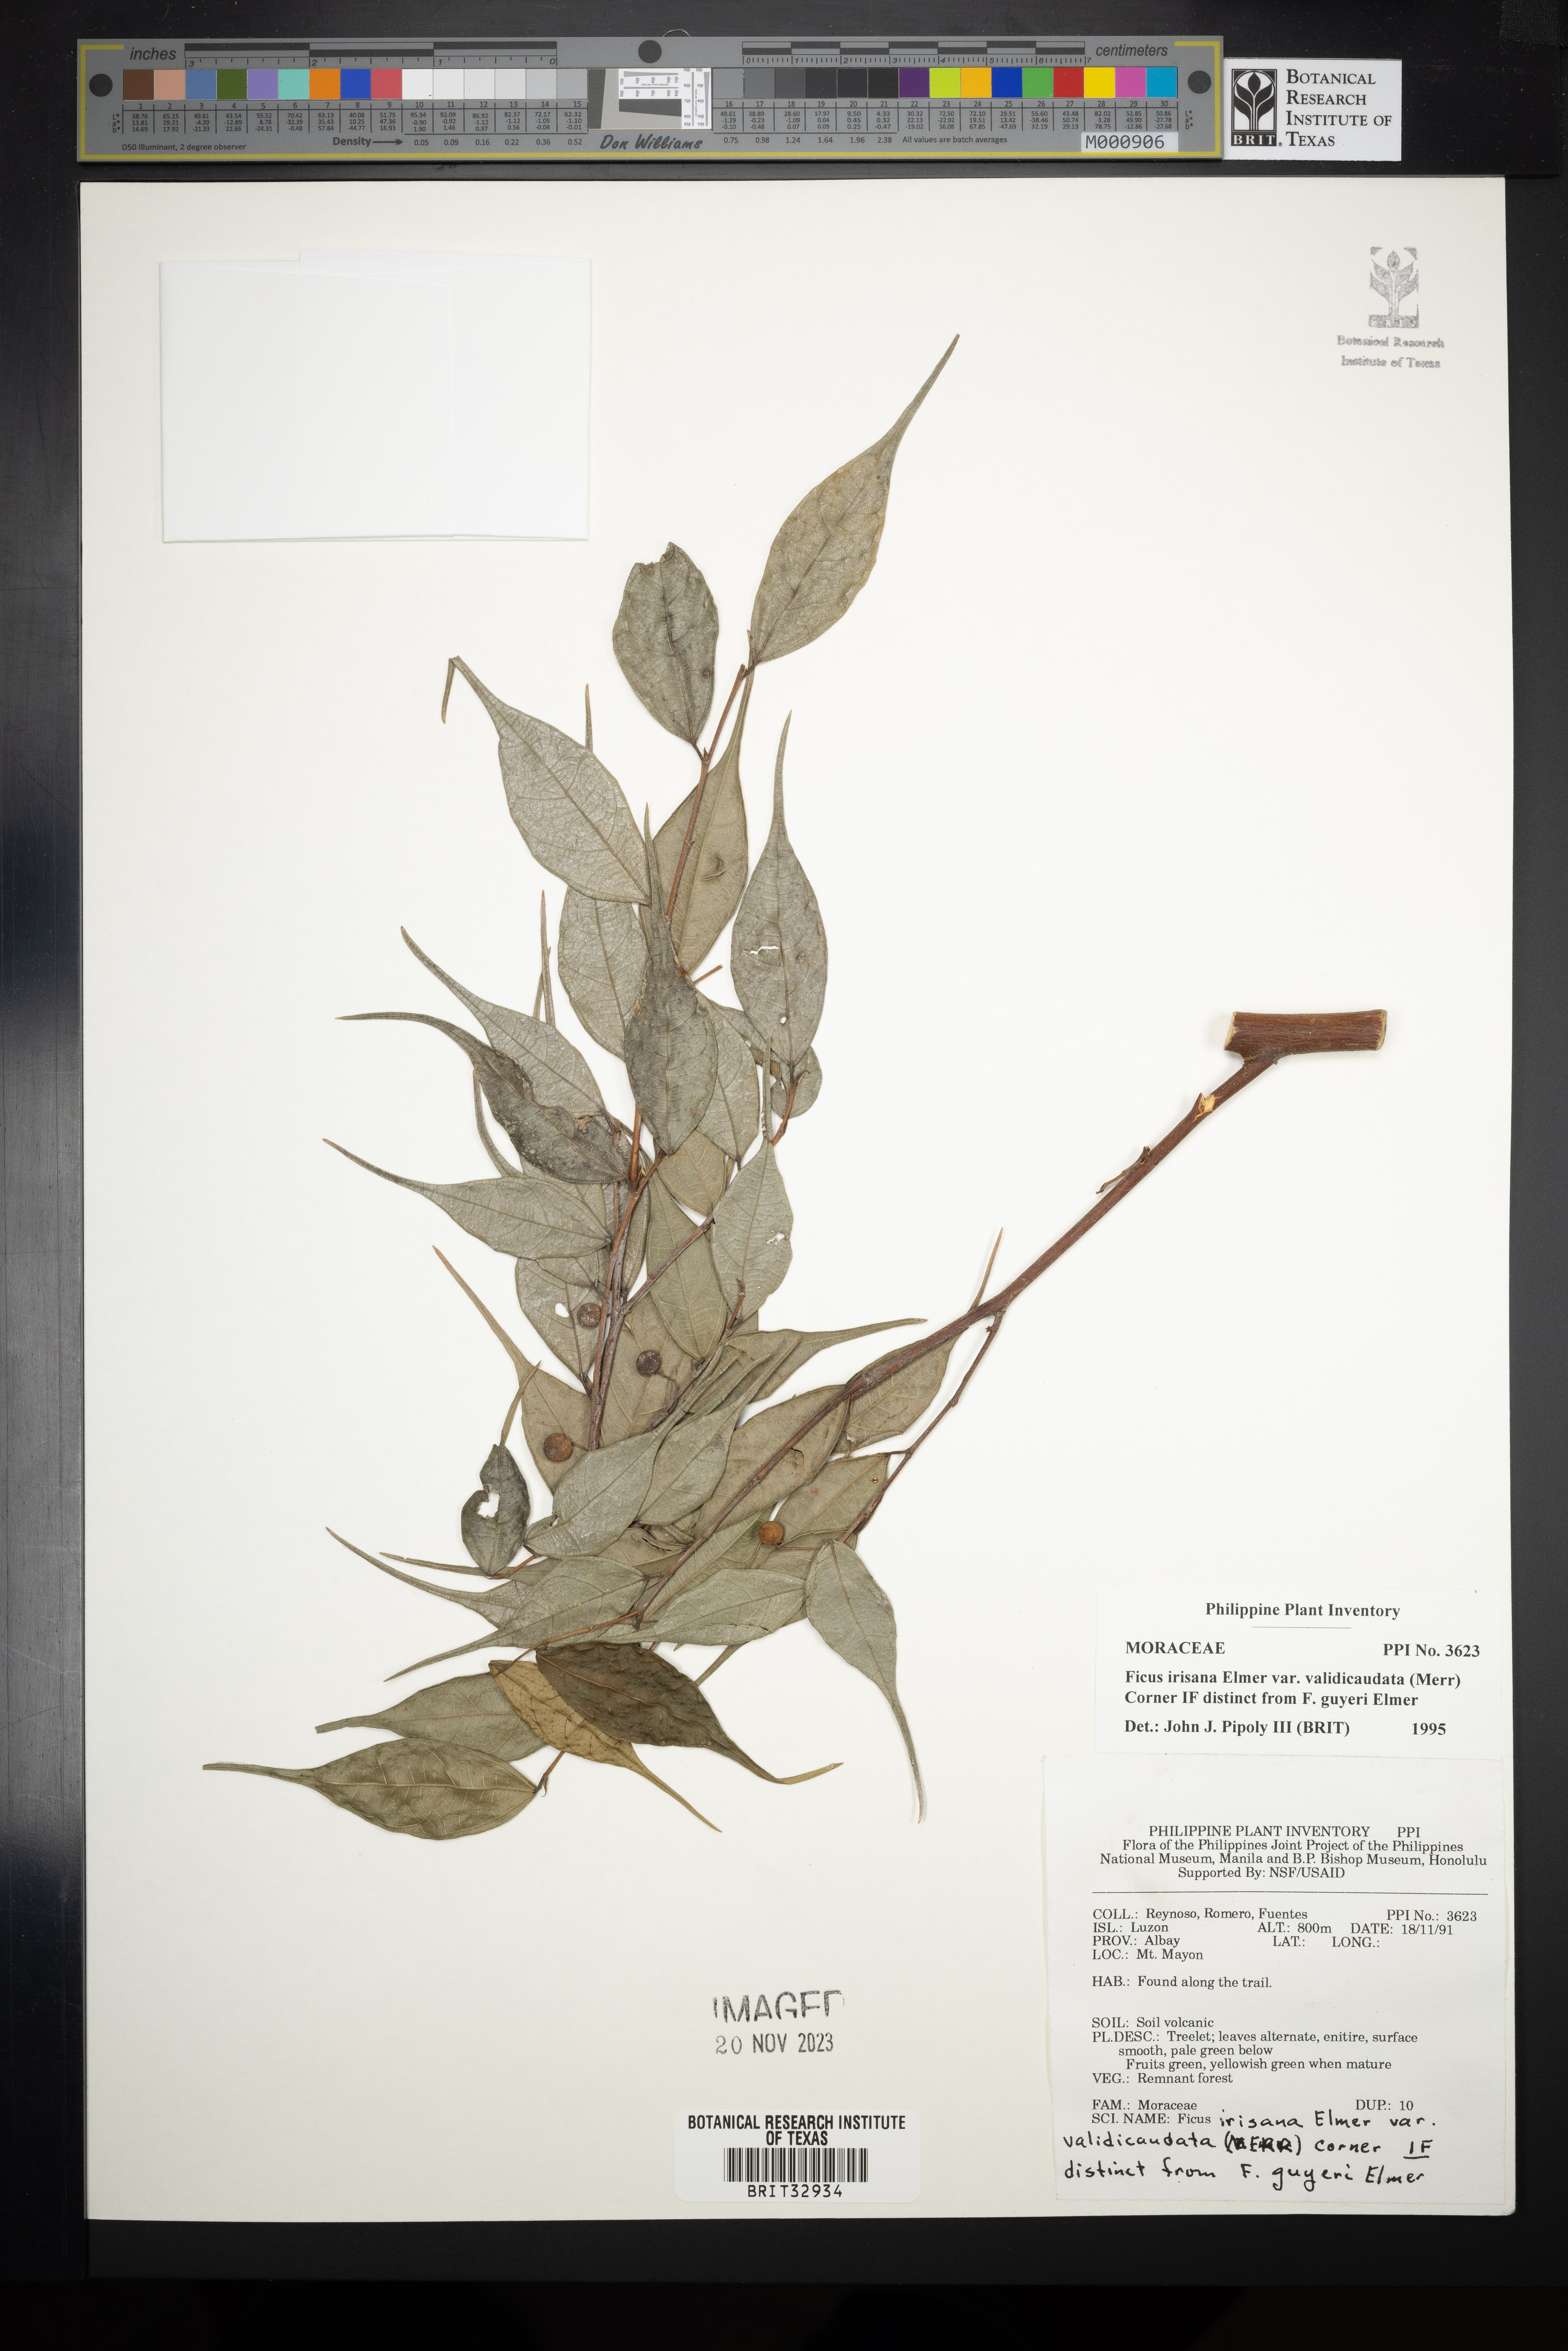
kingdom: Plantae
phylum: Tracheophyta
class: Magnoliopsida
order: Rosales
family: Moraceae
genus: Ficus
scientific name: Ficus ampelos
